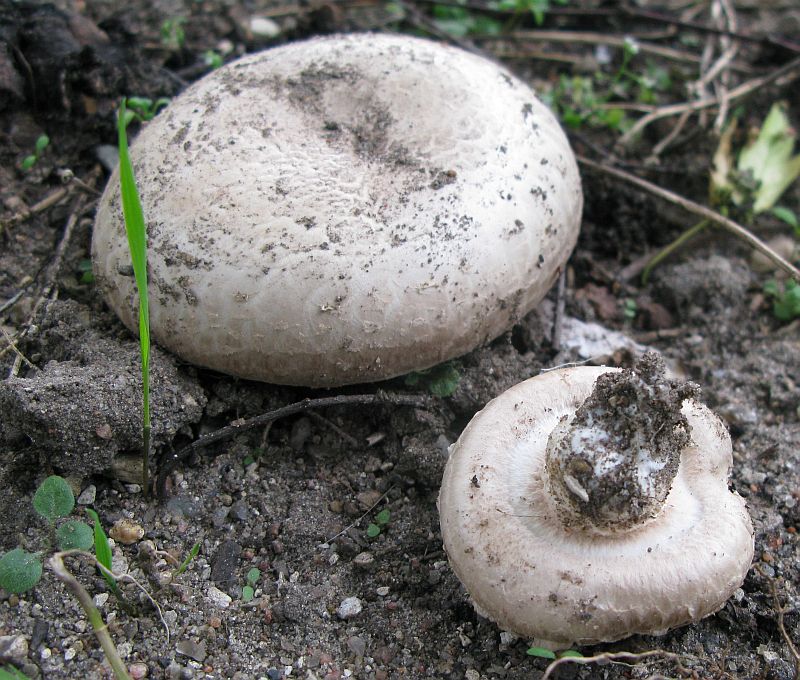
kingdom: Fungi
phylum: Basidiomycota
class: Agaricomycetes
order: Agaricales
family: Agaricaceae
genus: Agaricus
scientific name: Agaricus subfloccosus
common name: randskællet champignon
